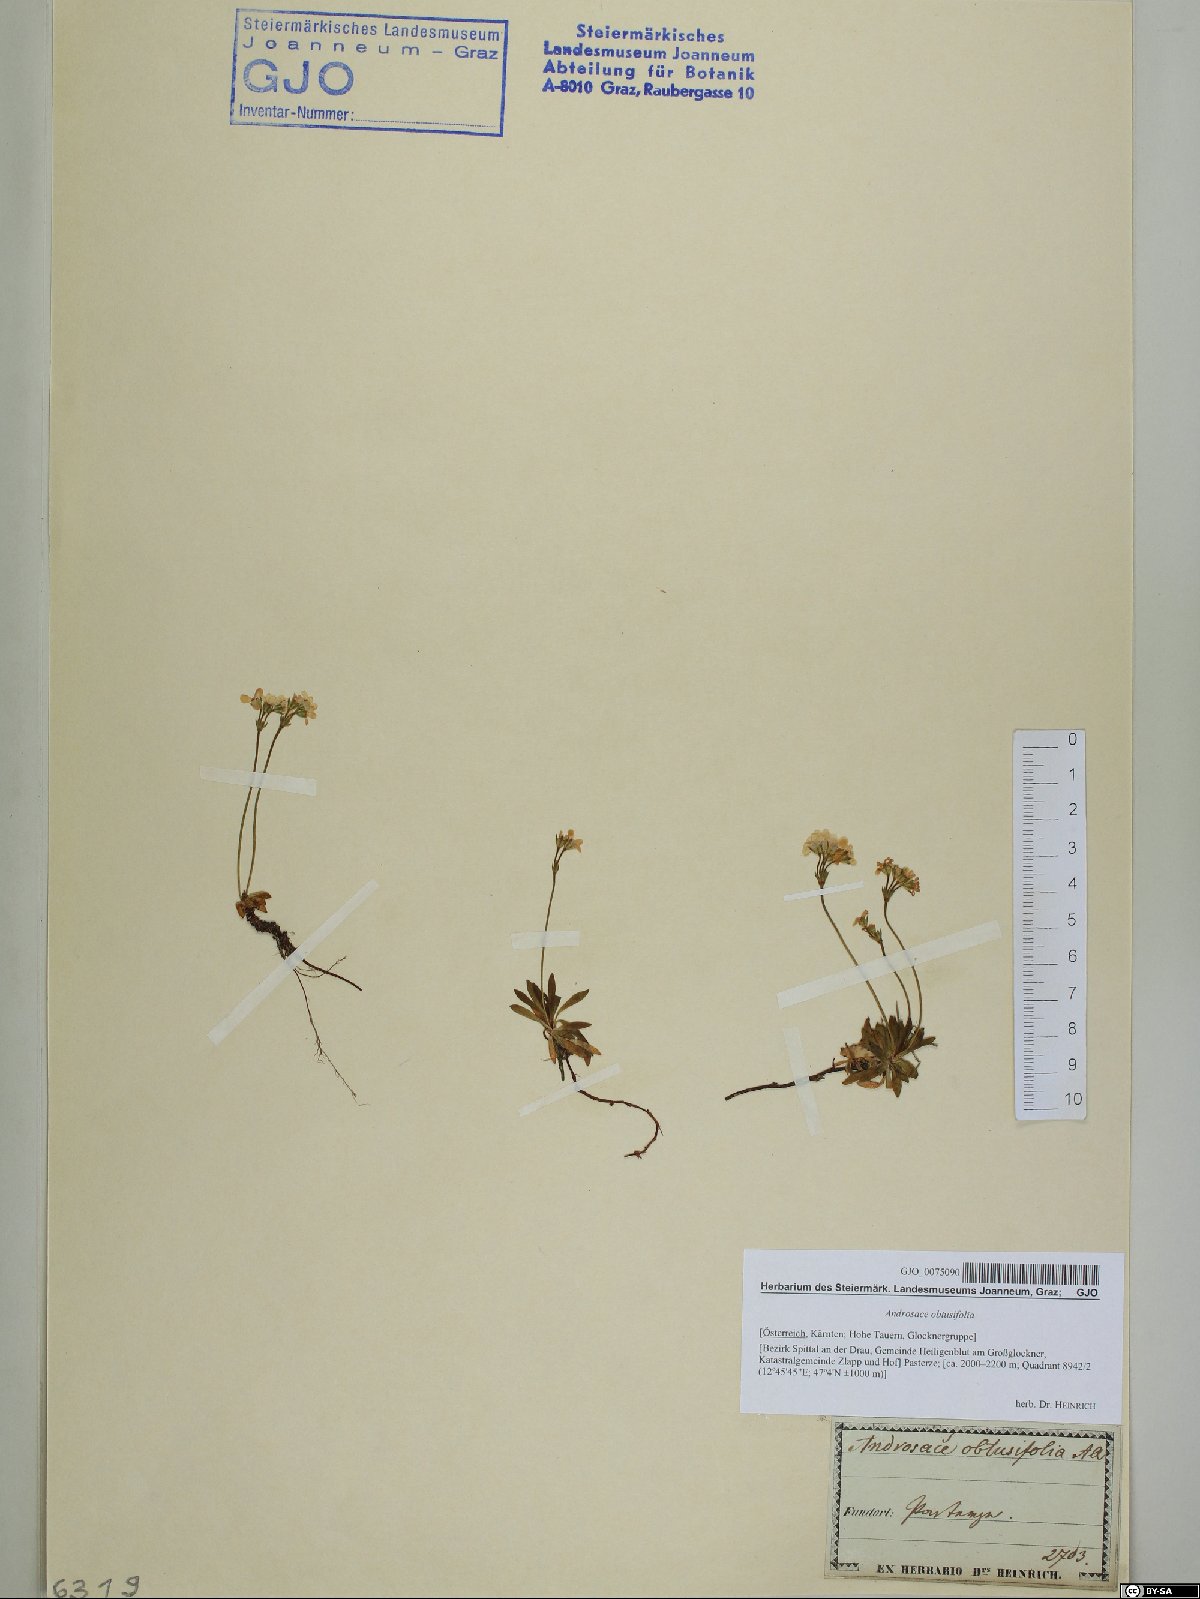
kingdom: Plantae
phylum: Tracheophyta
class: Magnoliopsida
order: Ericales
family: Primulaceae
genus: Androsace
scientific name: Androsace obtusifolia
